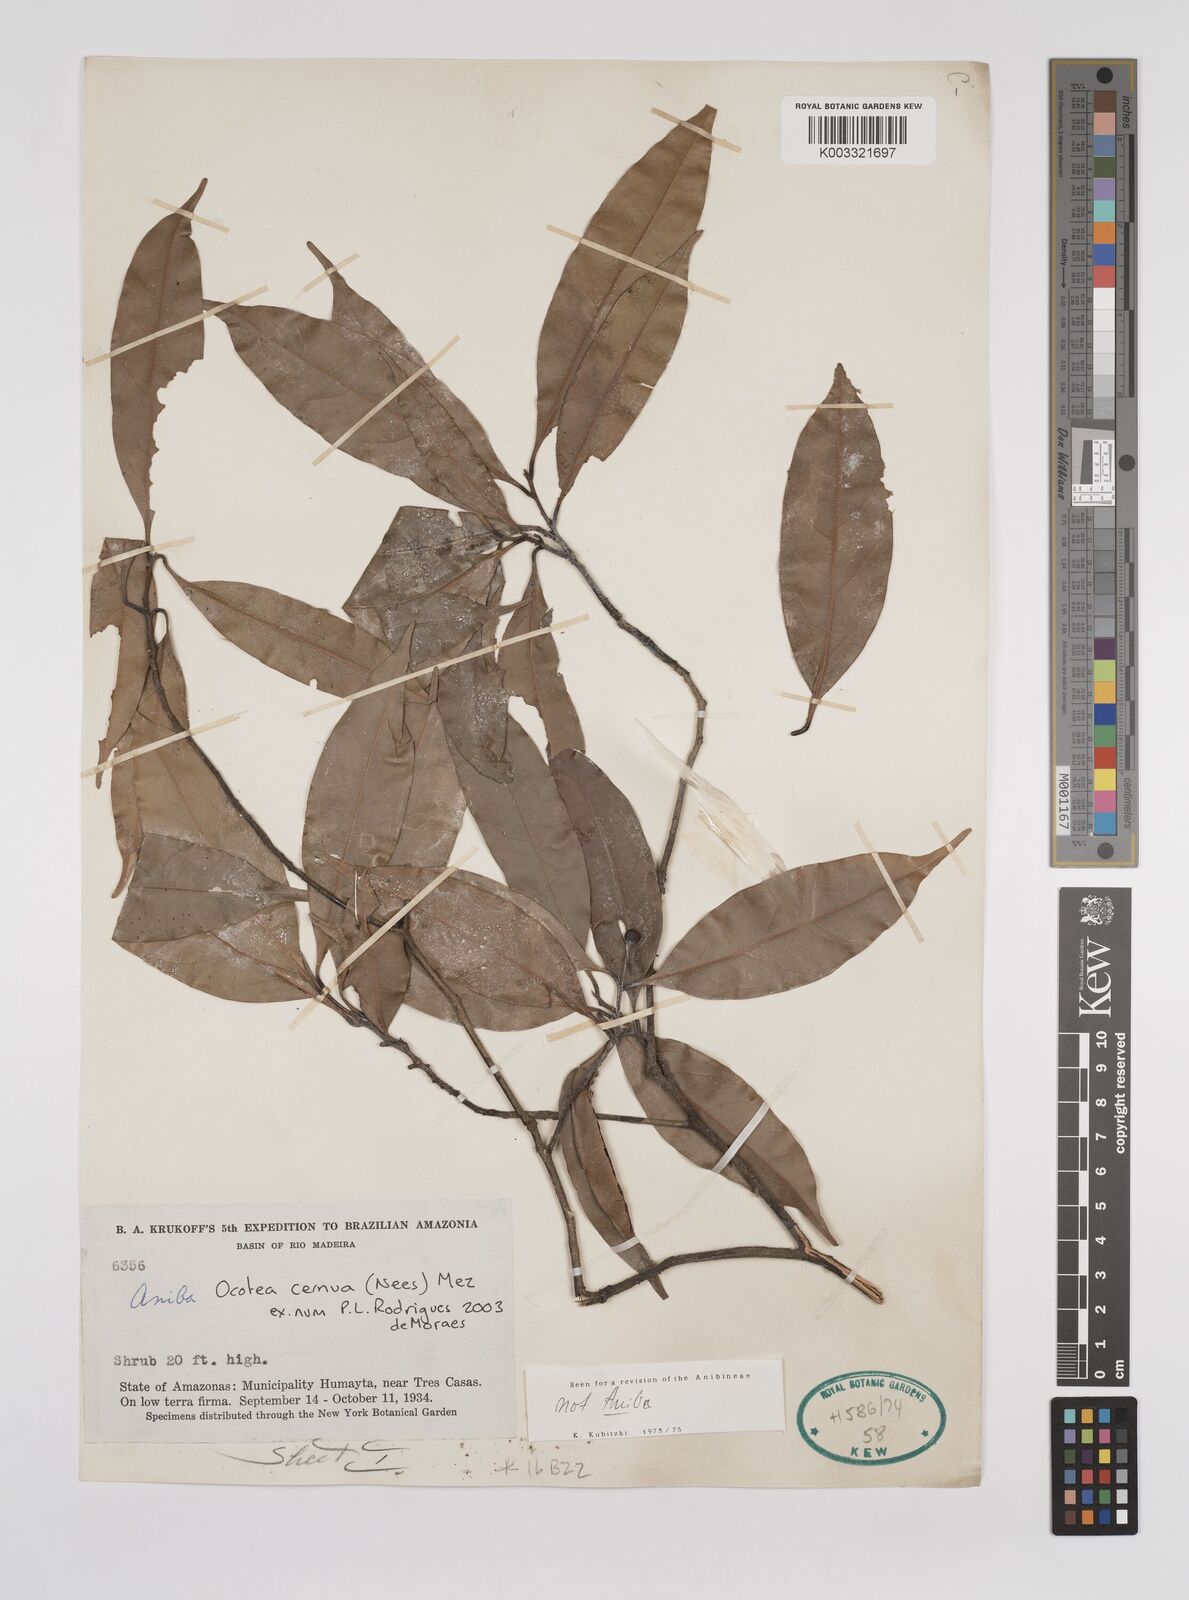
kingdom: Plantae
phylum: Tracheophyta
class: Magnoliopsida
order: Laurales
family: Lauraceae
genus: Ocotea
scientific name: Ocotea leptobotra
